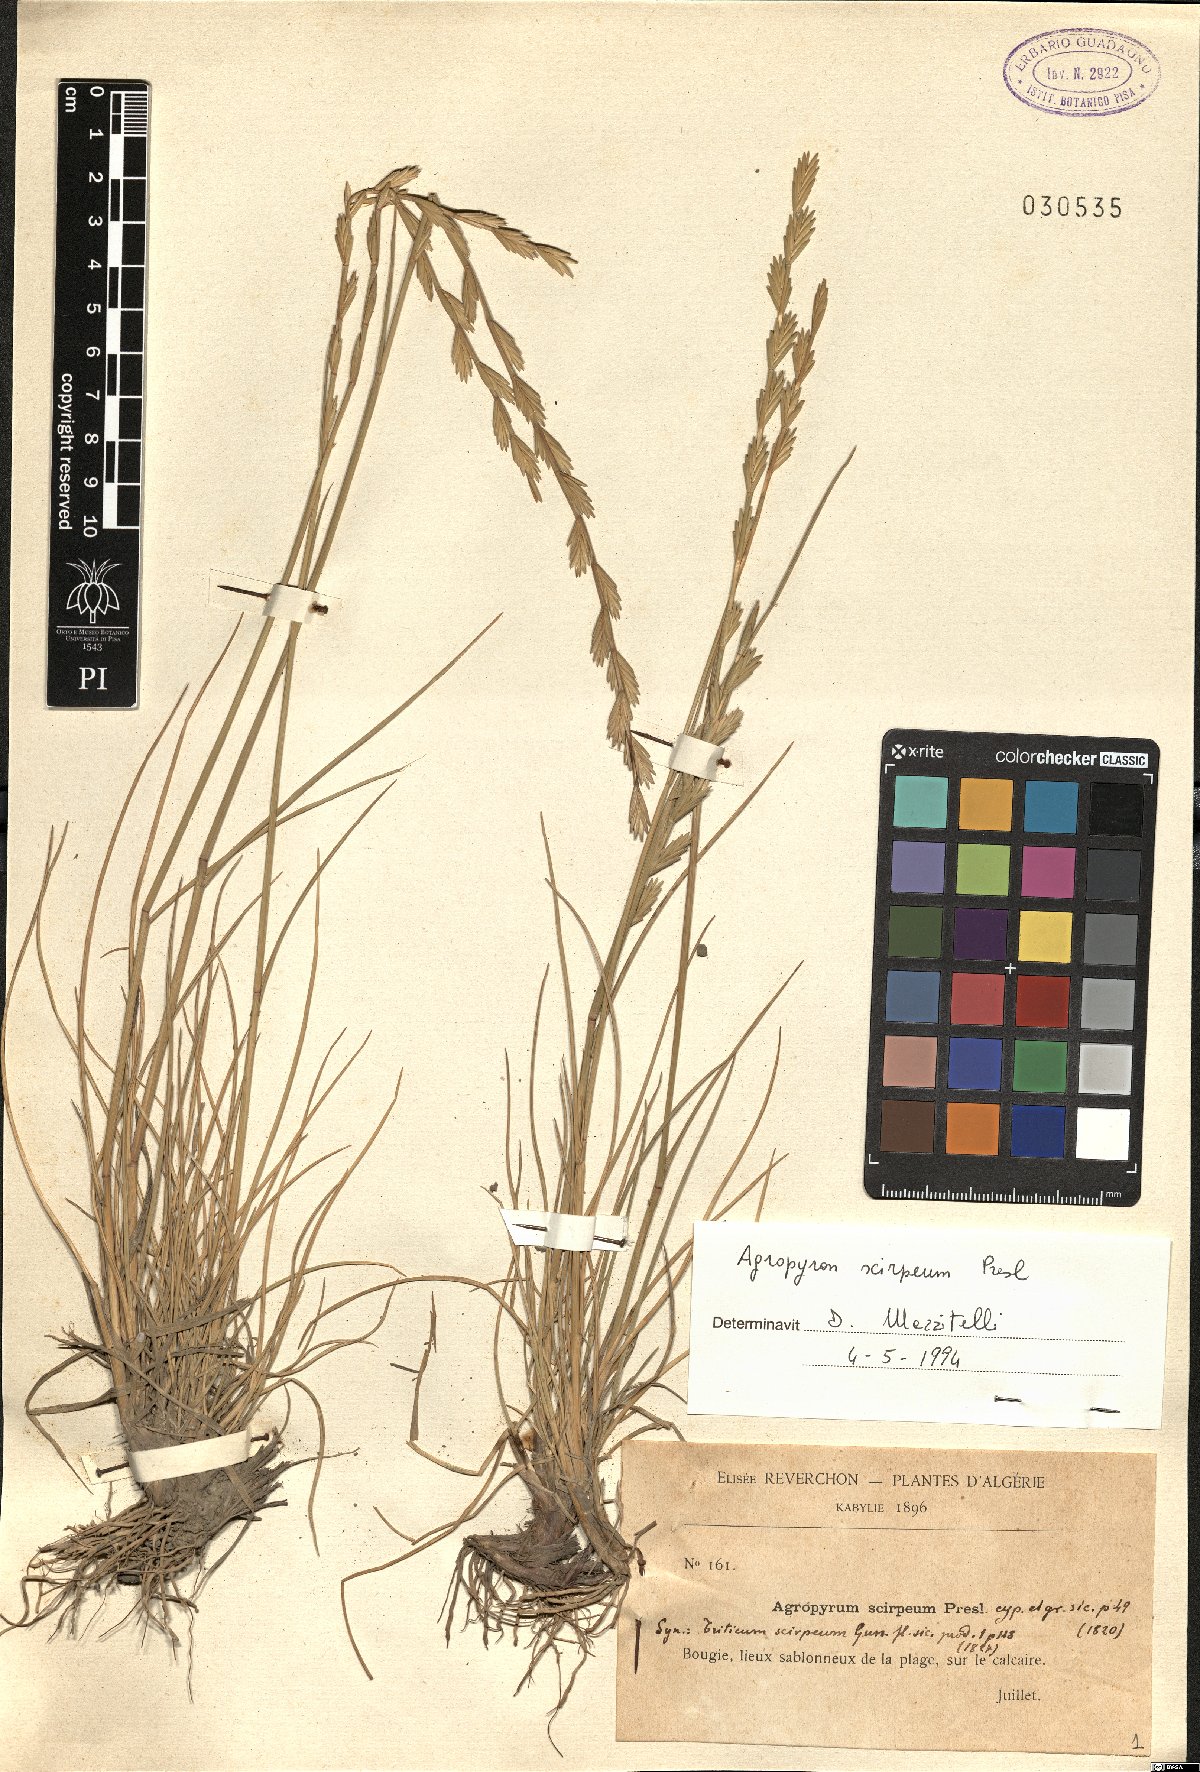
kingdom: Plantae
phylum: Tracheophyta
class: Liliopsida
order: Poales
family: Poaceae
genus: Thinopyrum
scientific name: Thinopyrum elongatum
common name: Tall wheatgrass
